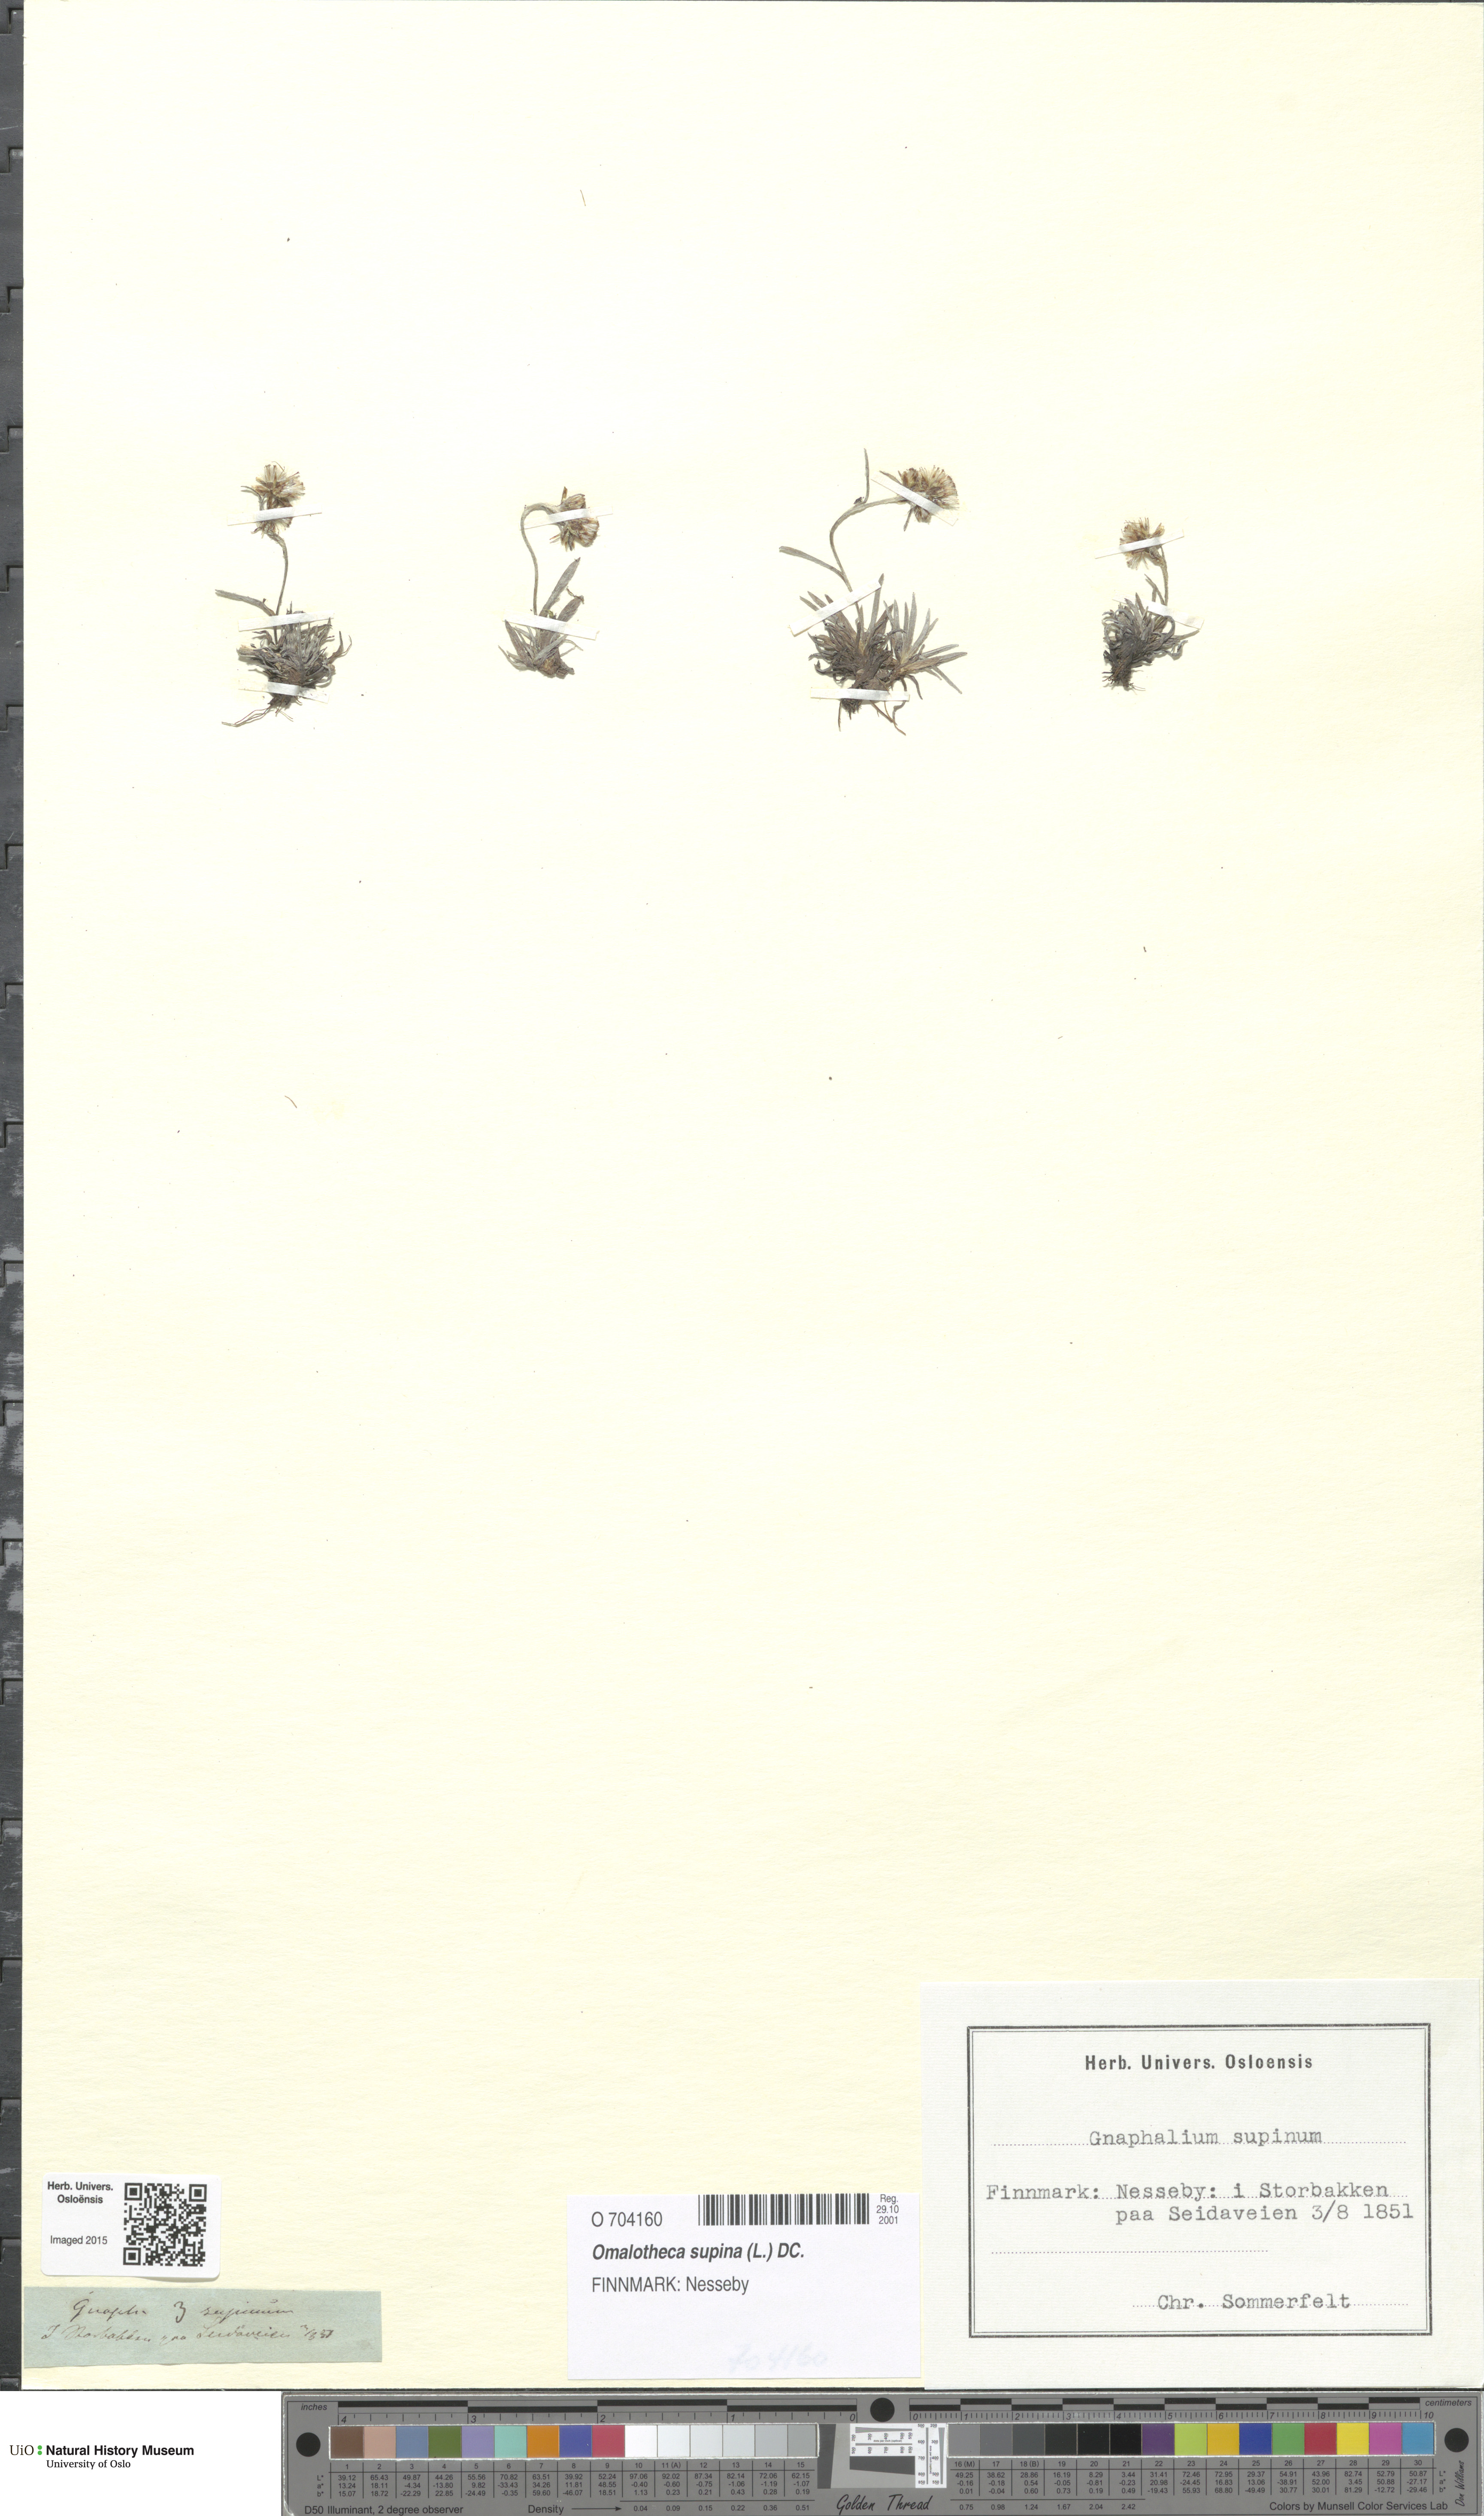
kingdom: Plantae
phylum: Tracheophyta
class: Magnoliopsida
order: Asterales
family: Asteraceae
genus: Omalotheca
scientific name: Omalotheca supina
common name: Alpine arctic-cudweed
